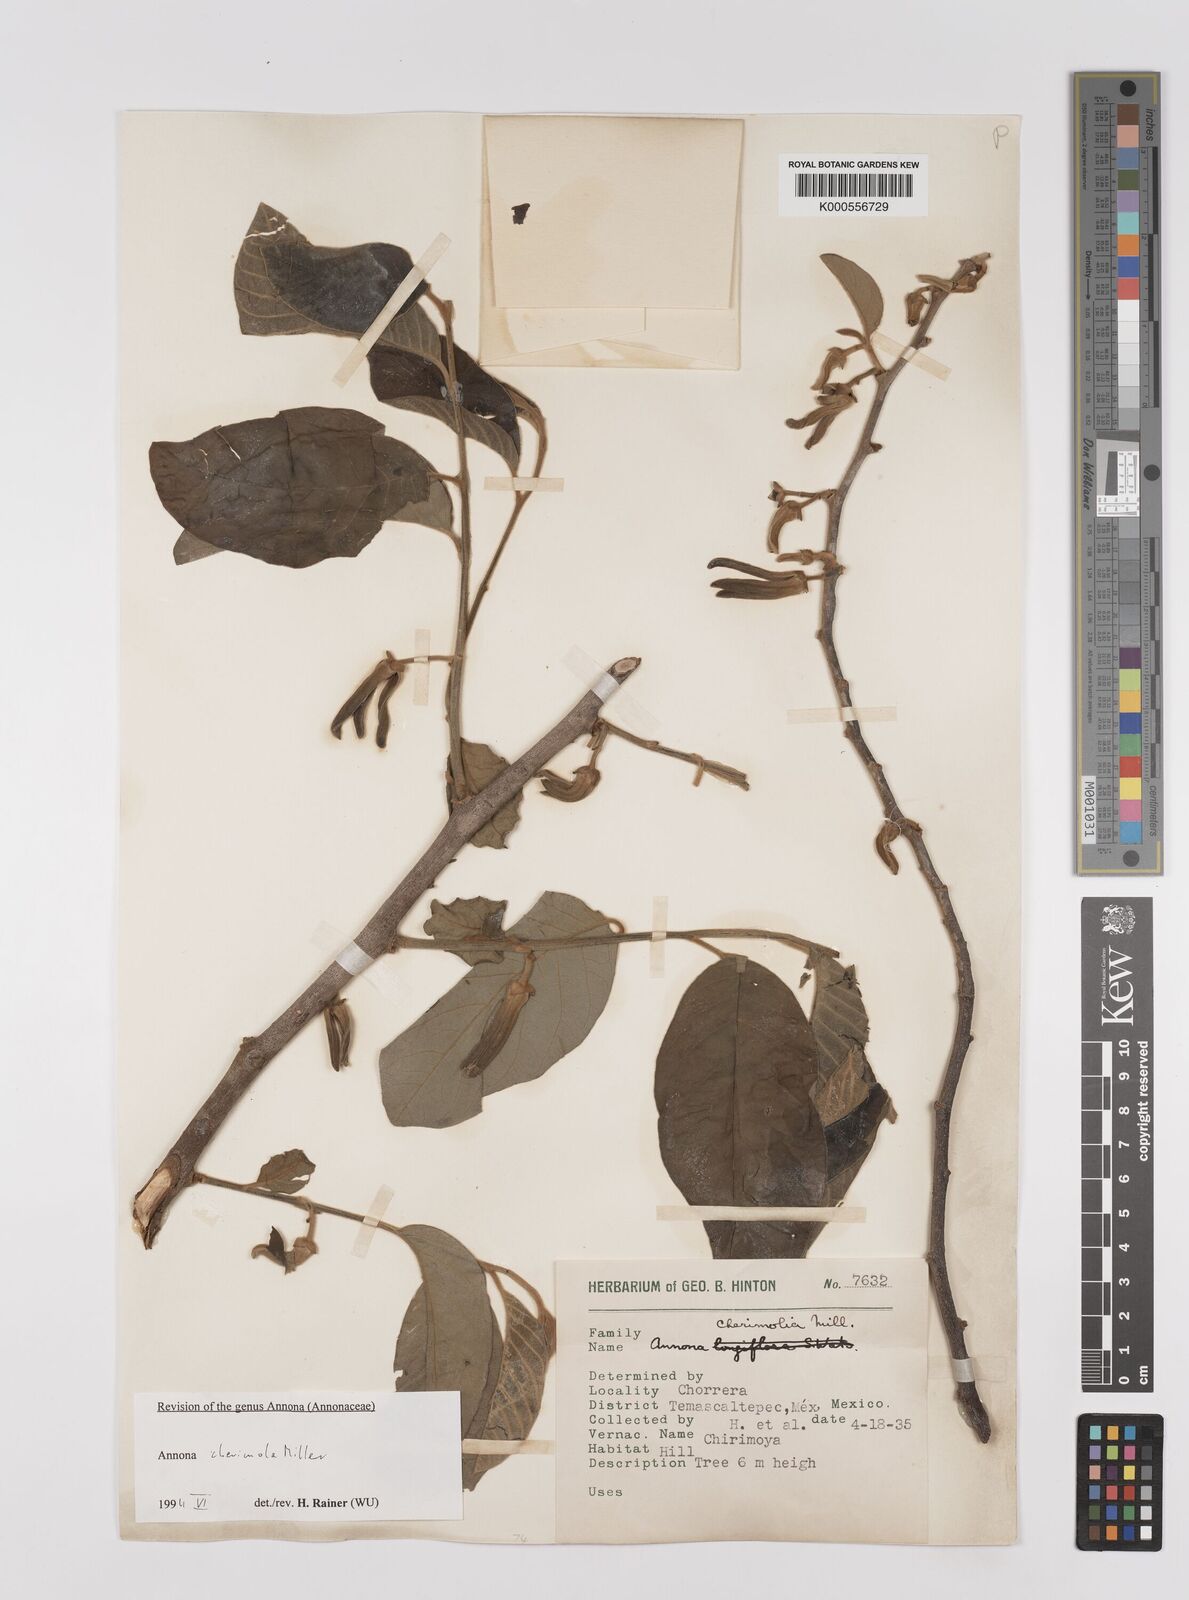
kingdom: Plantae
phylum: Tracheophyta
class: Magnoliopsida
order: Magnoliales
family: Annonaceae
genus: Annona
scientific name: Annona cherimola
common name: Cherimoya
